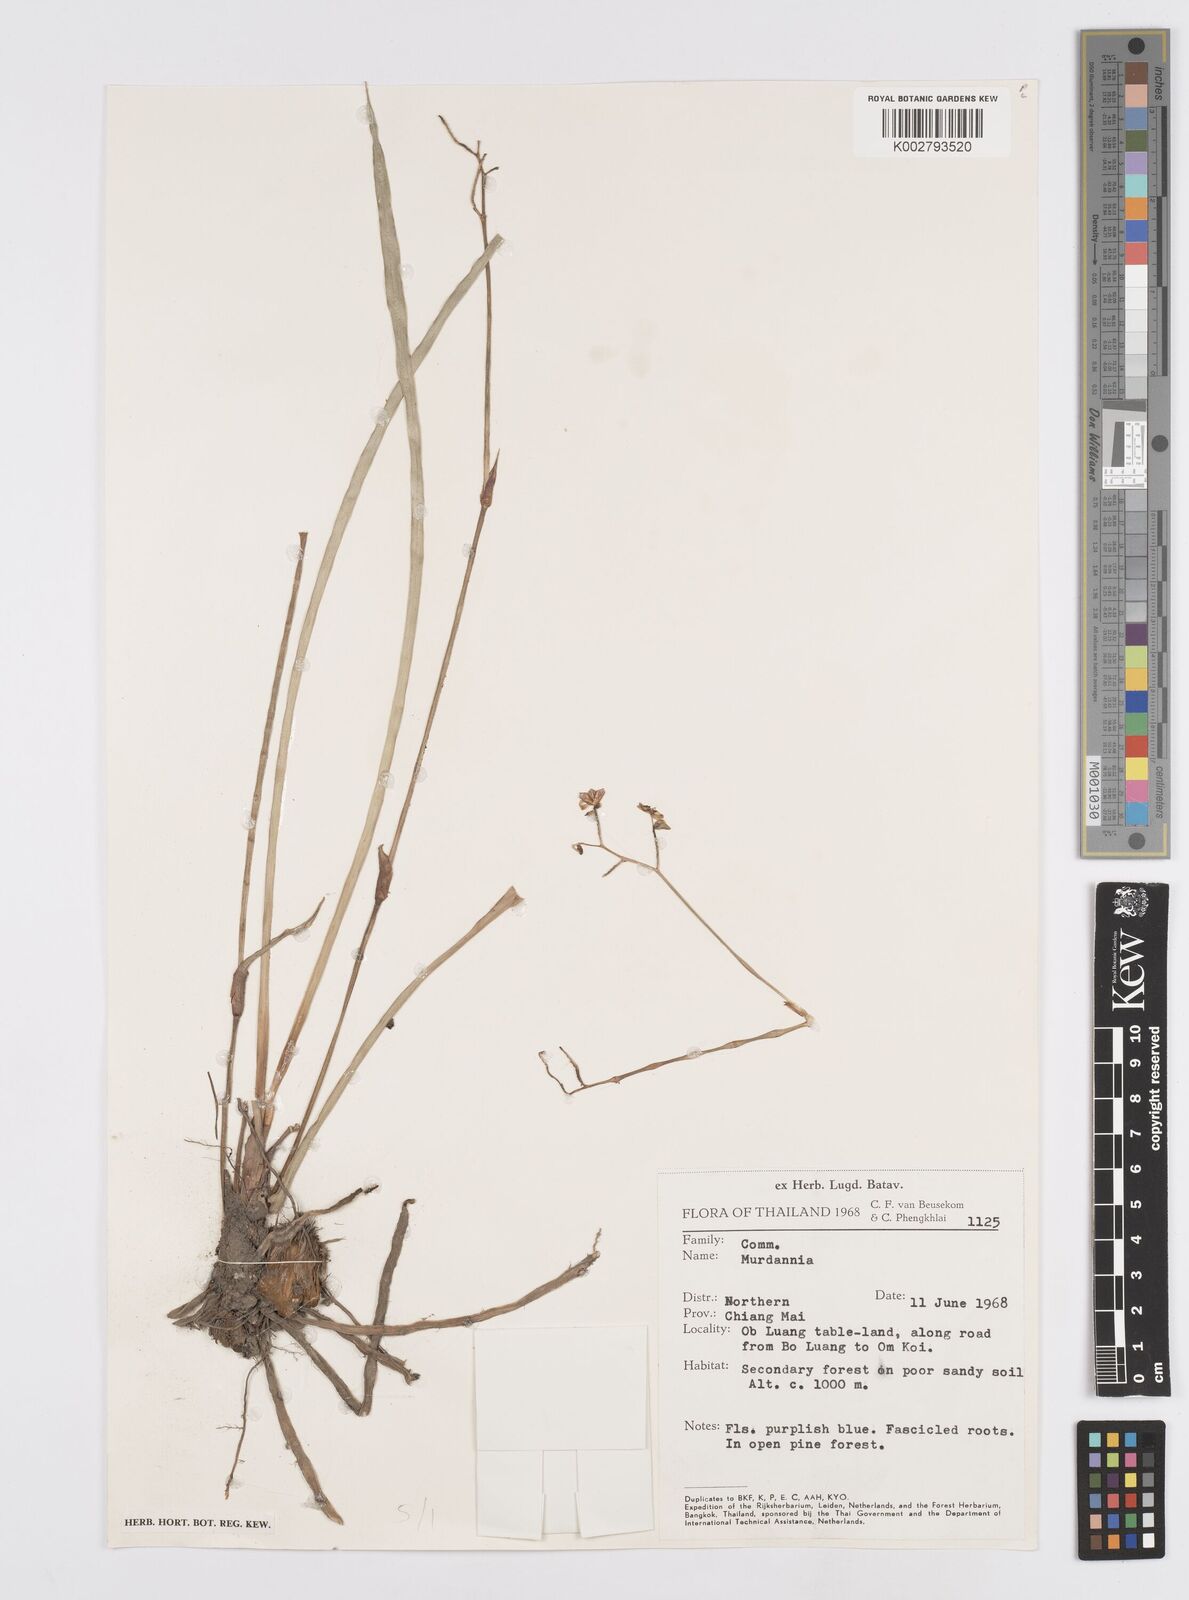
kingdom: Plantae
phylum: Tracheophyta
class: Liliopsida
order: Commelinales
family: Commelinaceae
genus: Murdannia
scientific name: Murdannia
